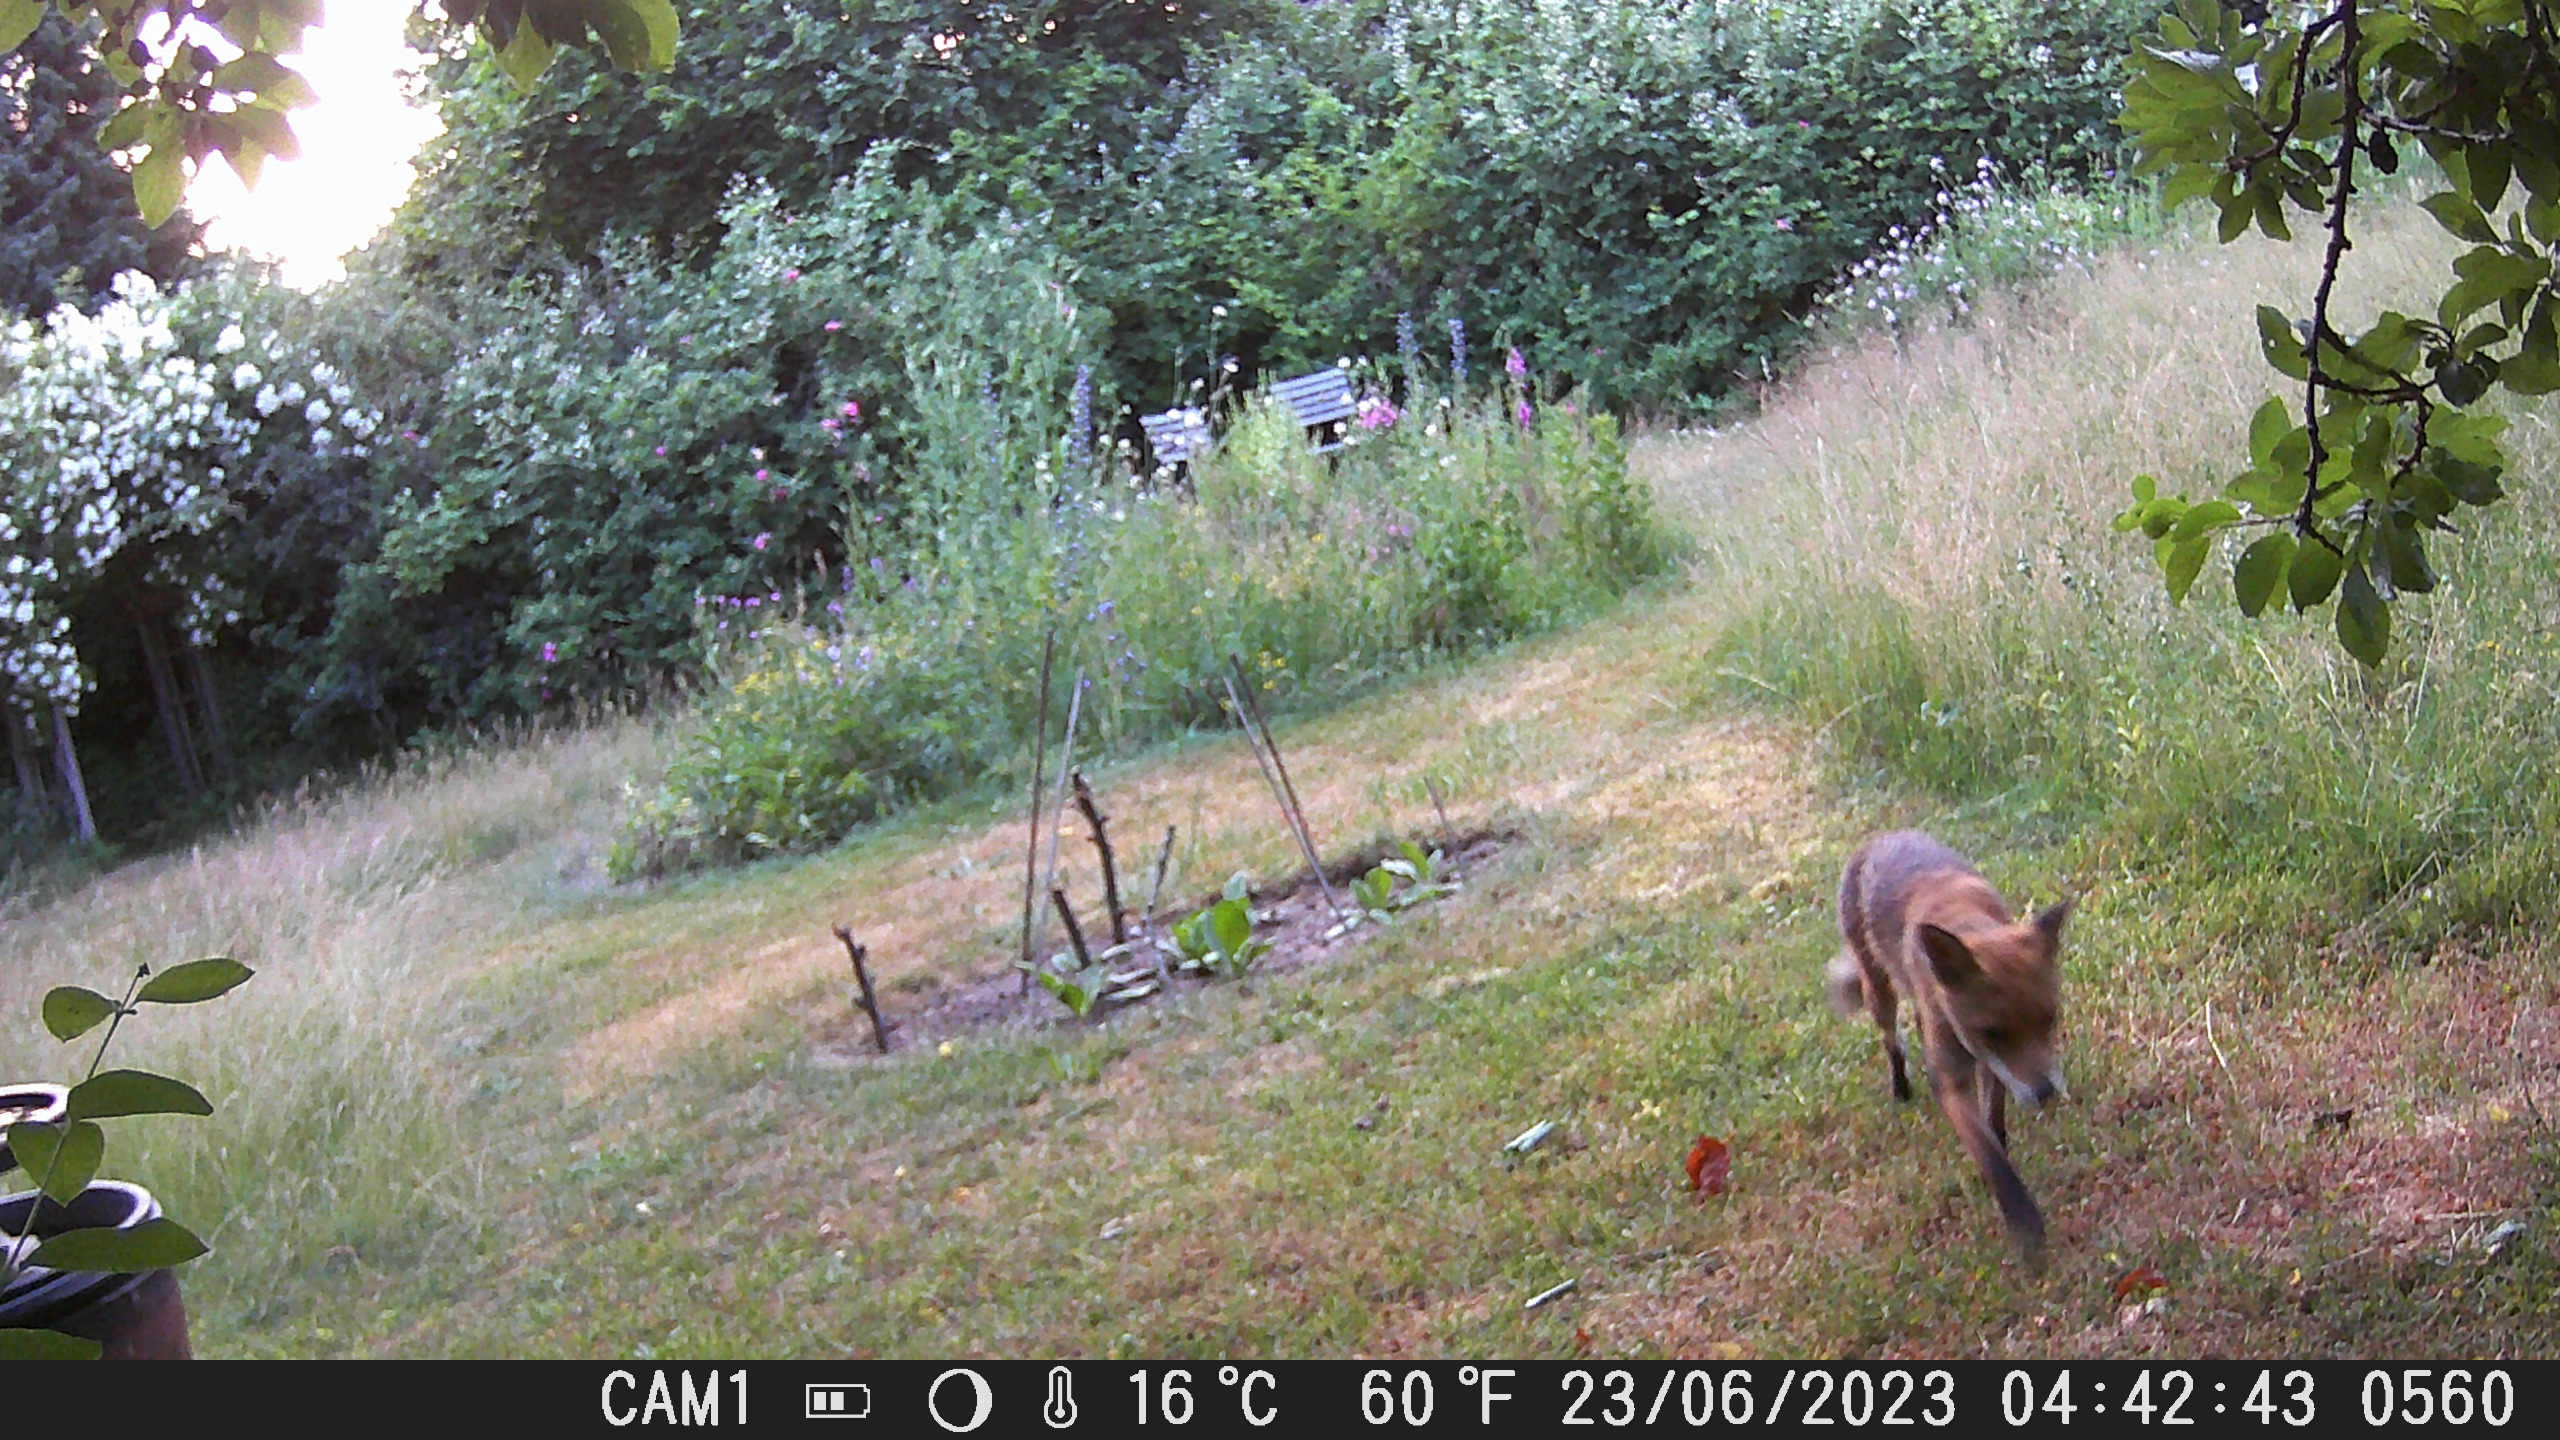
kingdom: Animalia
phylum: Chordata
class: Mammalia
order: Carnivora
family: Canidae
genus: Vulpes
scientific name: Vulpes vulpes
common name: Ræv
